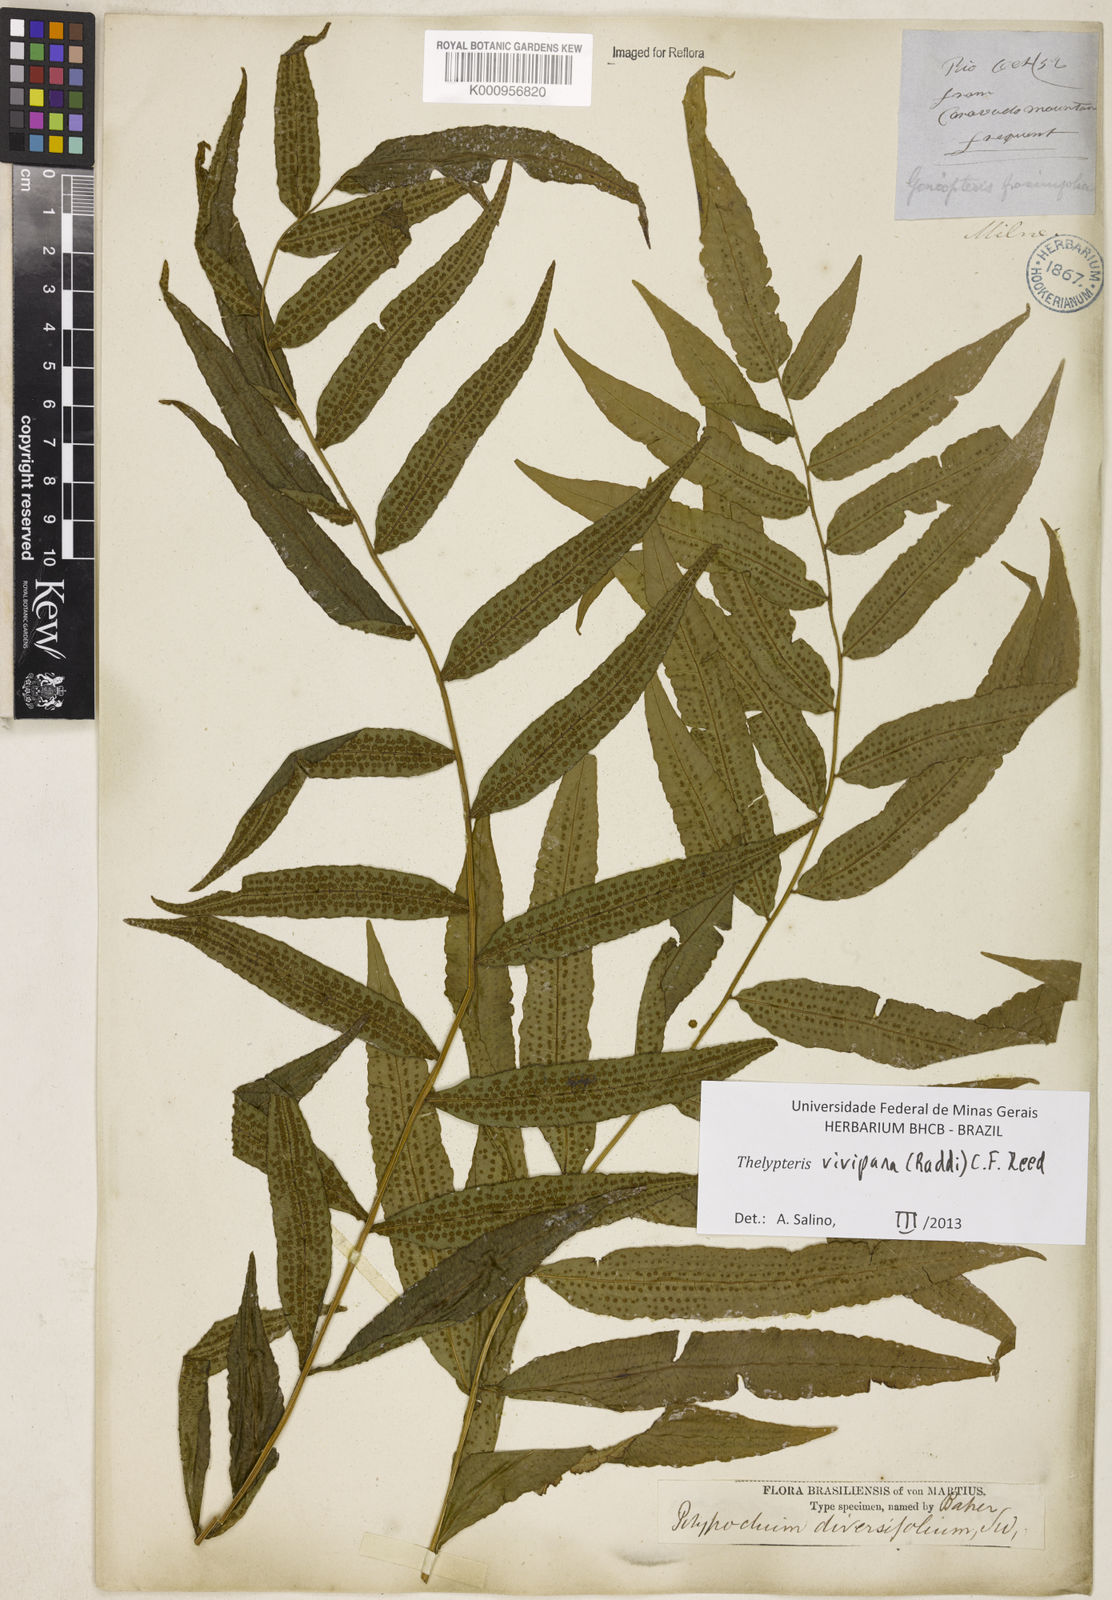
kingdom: Plantae
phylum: Tracheophyta
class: Polypodiopsida
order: Polypodiales
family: Thelypteridaceae
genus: Goniopteris
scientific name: Goniopteris vivipara
